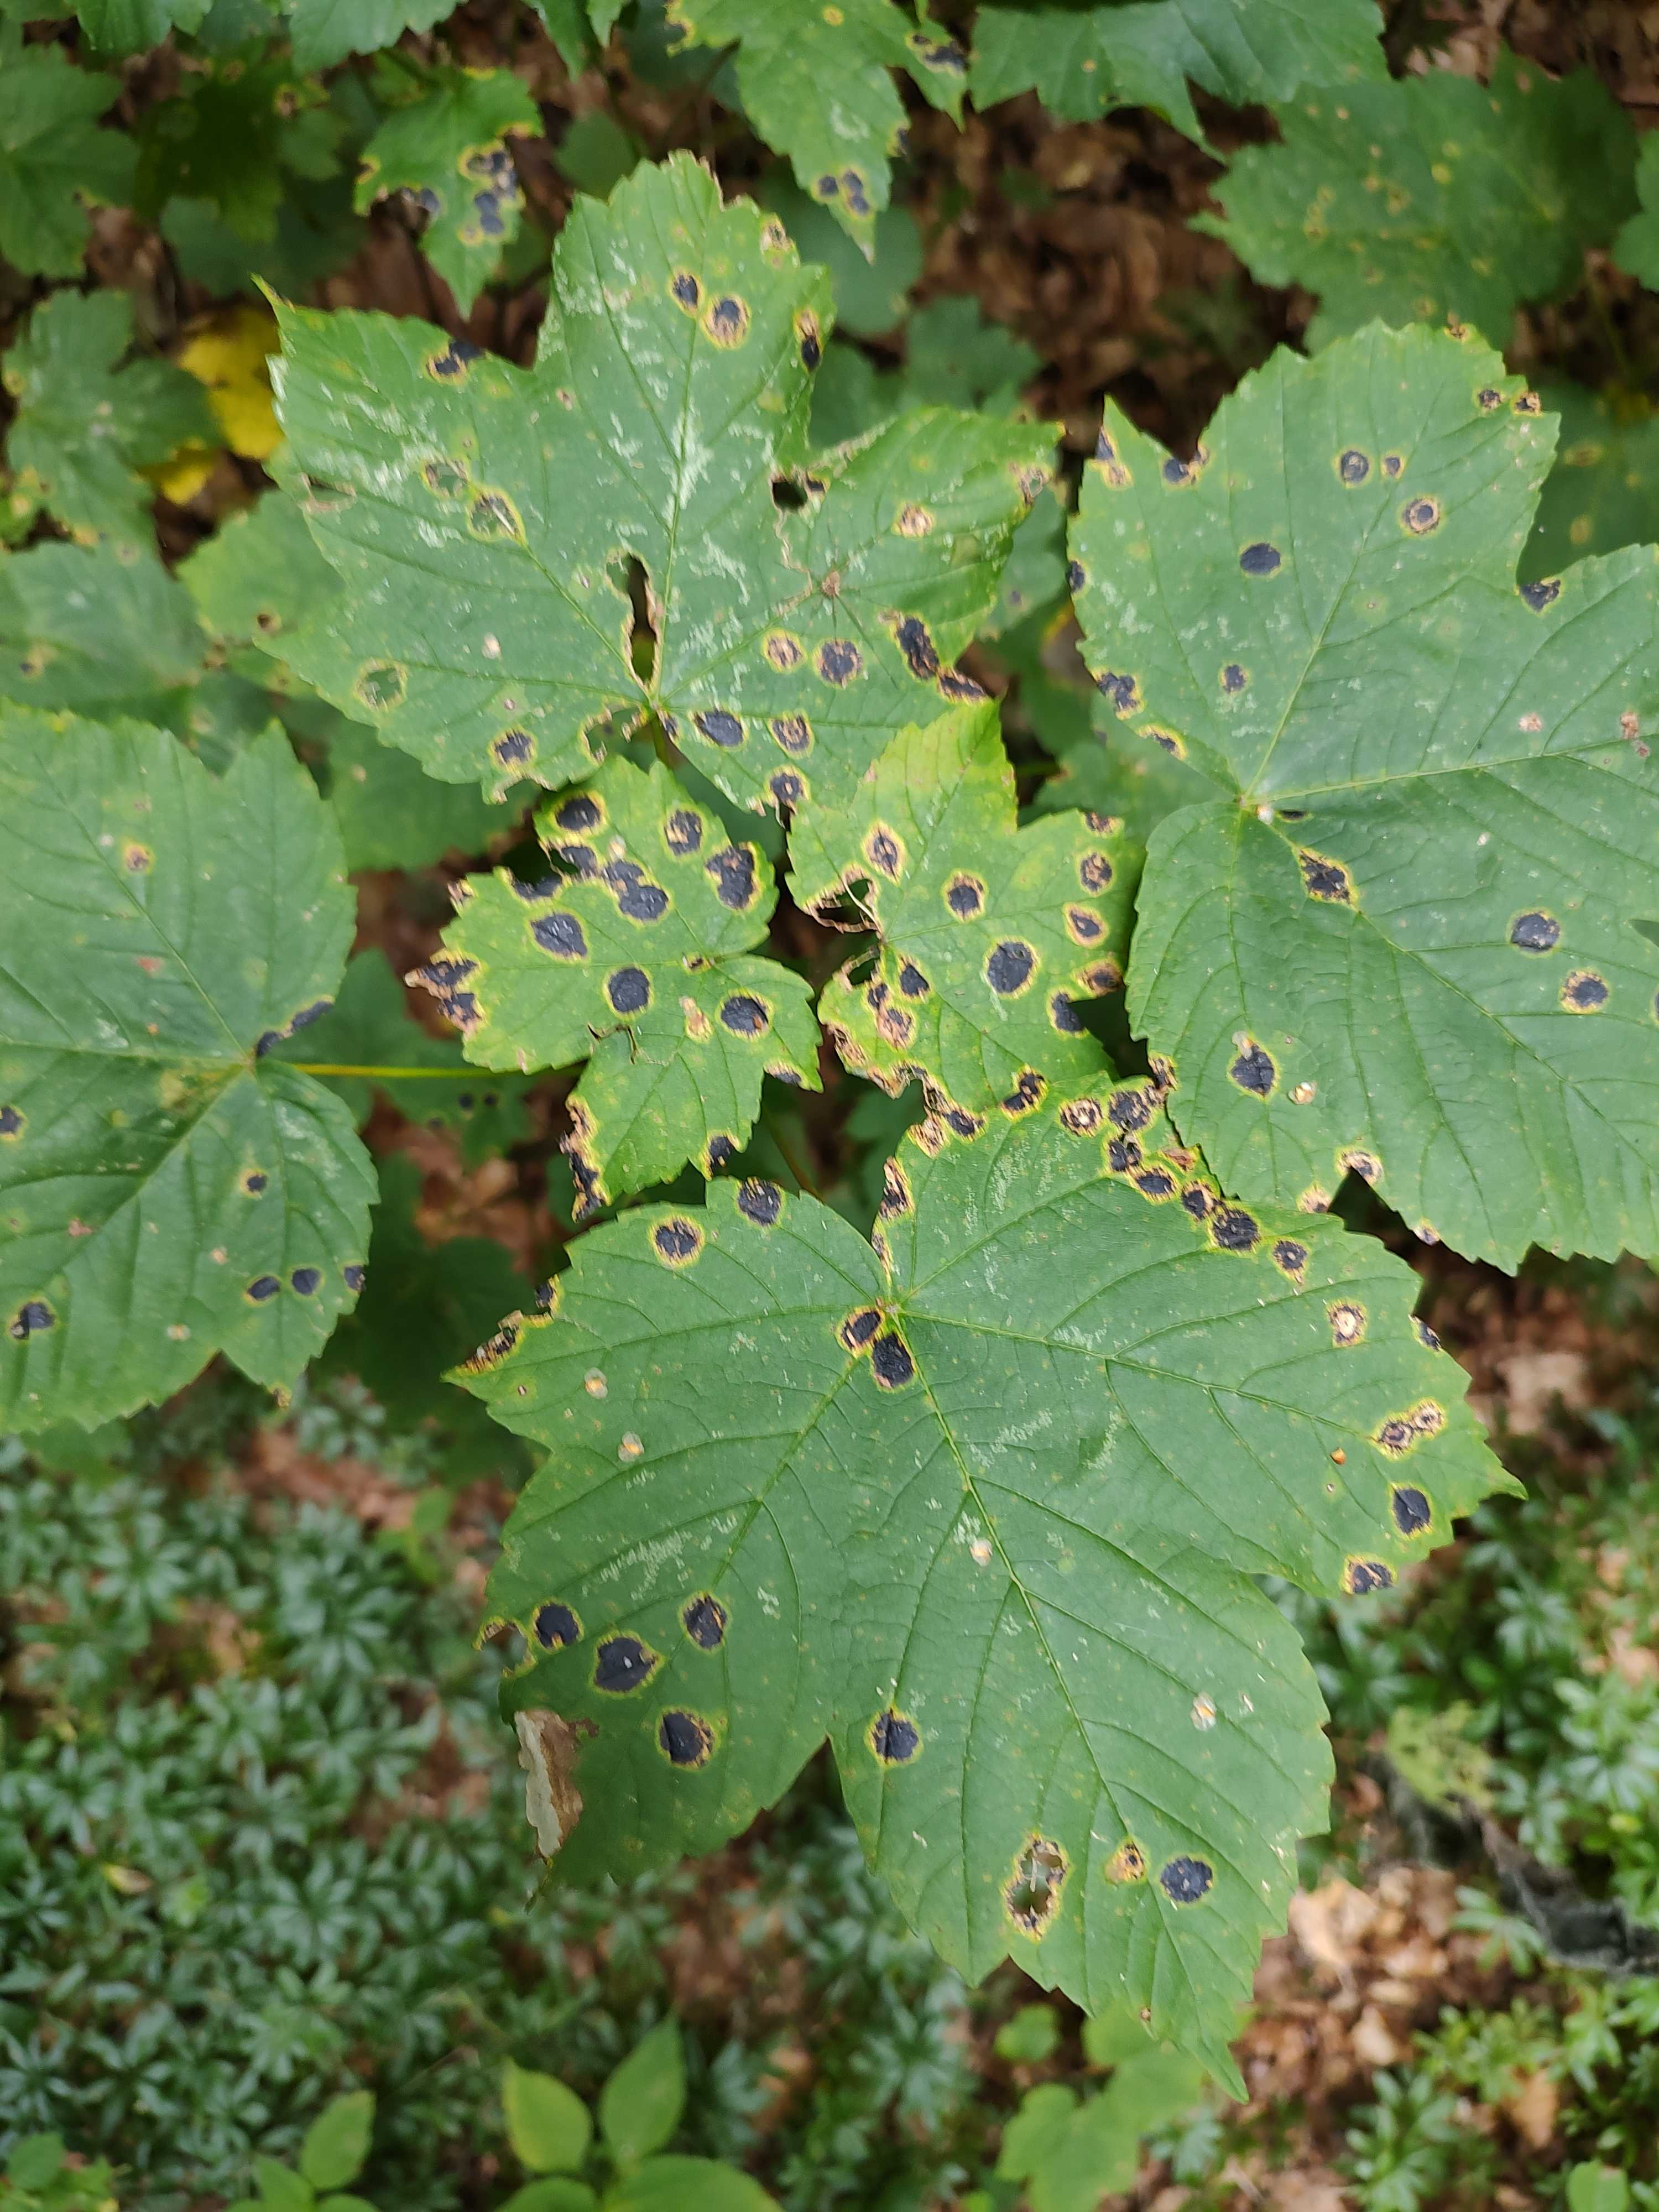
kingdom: Fungi
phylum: Ascomycota
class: Leotiomycetes
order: Rhytismatales
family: Rhytismataceae
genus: Rhytisma
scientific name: Rhytisma acerinum
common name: ahorn-rynkeplet
